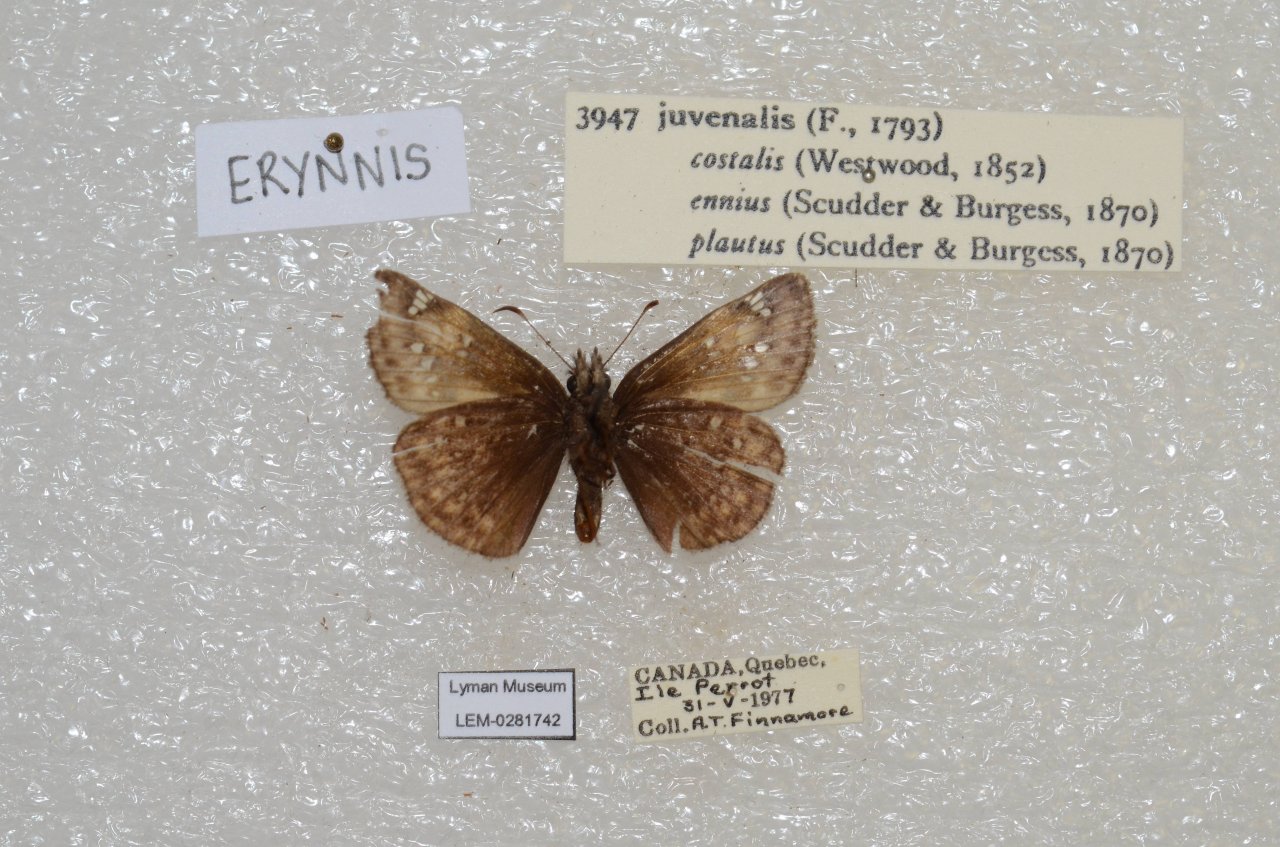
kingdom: Animalia
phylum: Arthropoda
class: Insecta
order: Lepidoptera
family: Hesperiidae
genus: Gesta
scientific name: Gesta
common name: Juvenal's Duskywing
